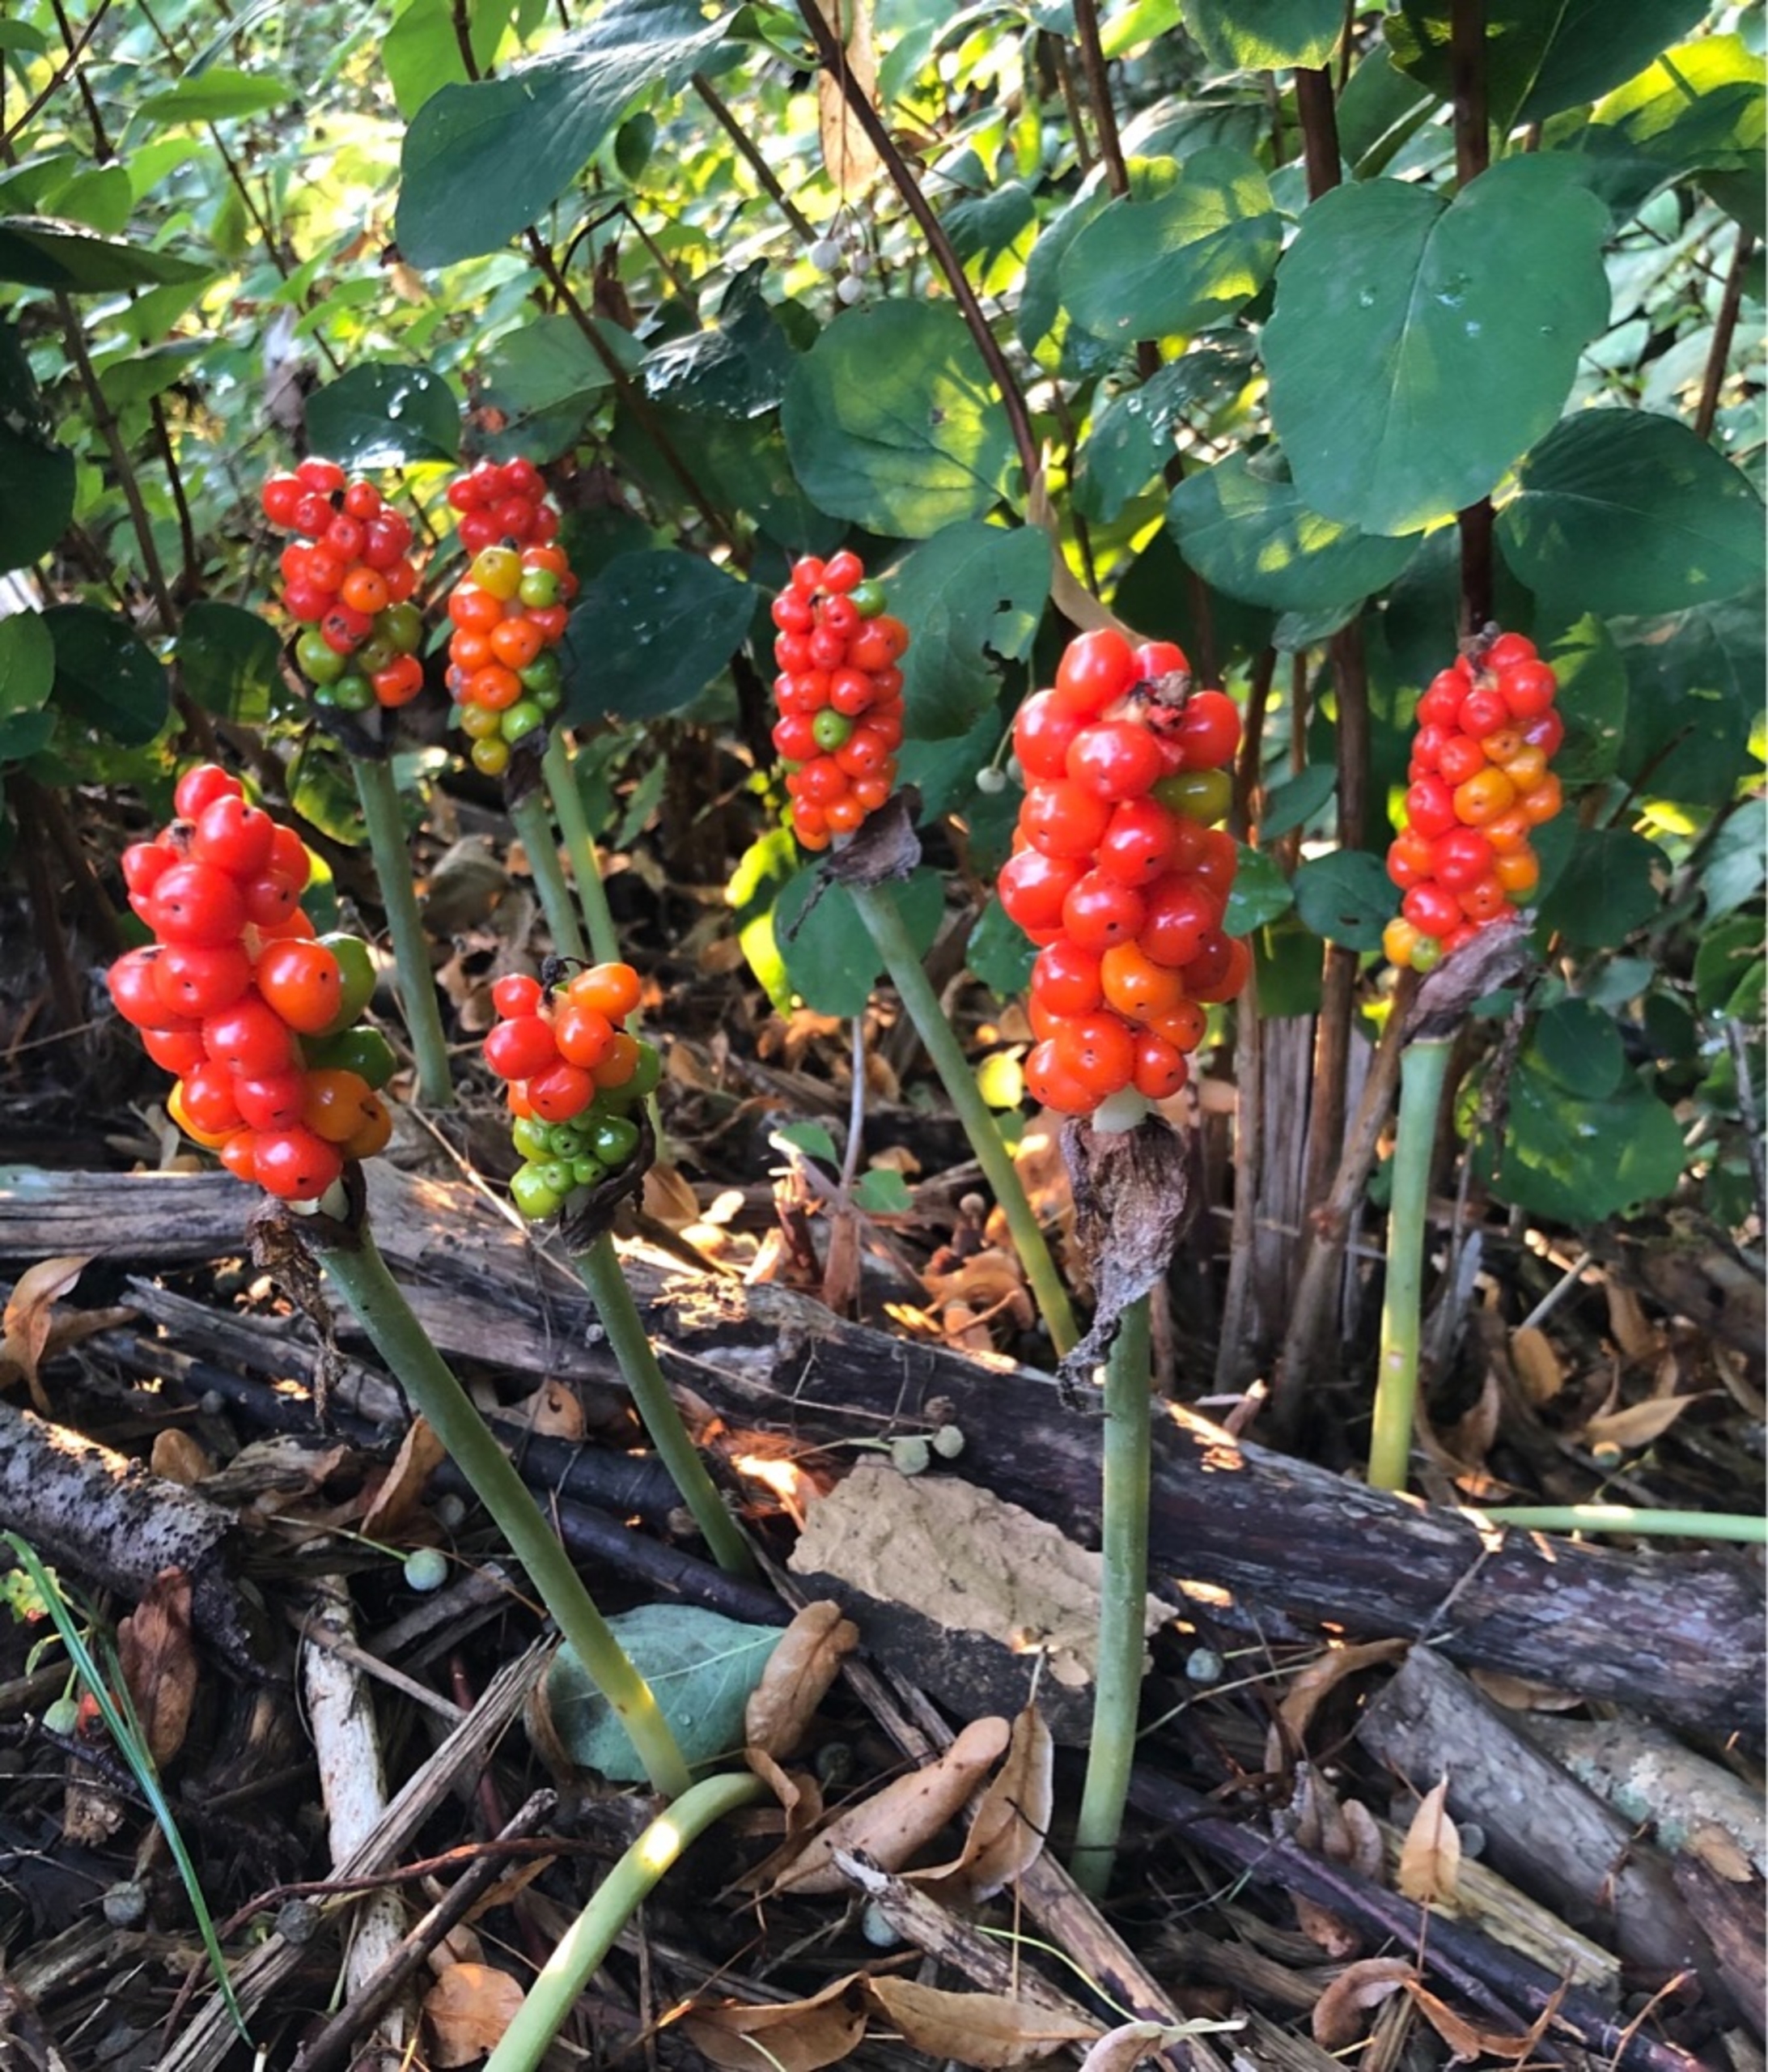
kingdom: Plantae
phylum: Tracheophyta
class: Liliopsida
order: Alismatales
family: Araceae
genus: Arum
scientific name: Arum
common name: Arumslægten
